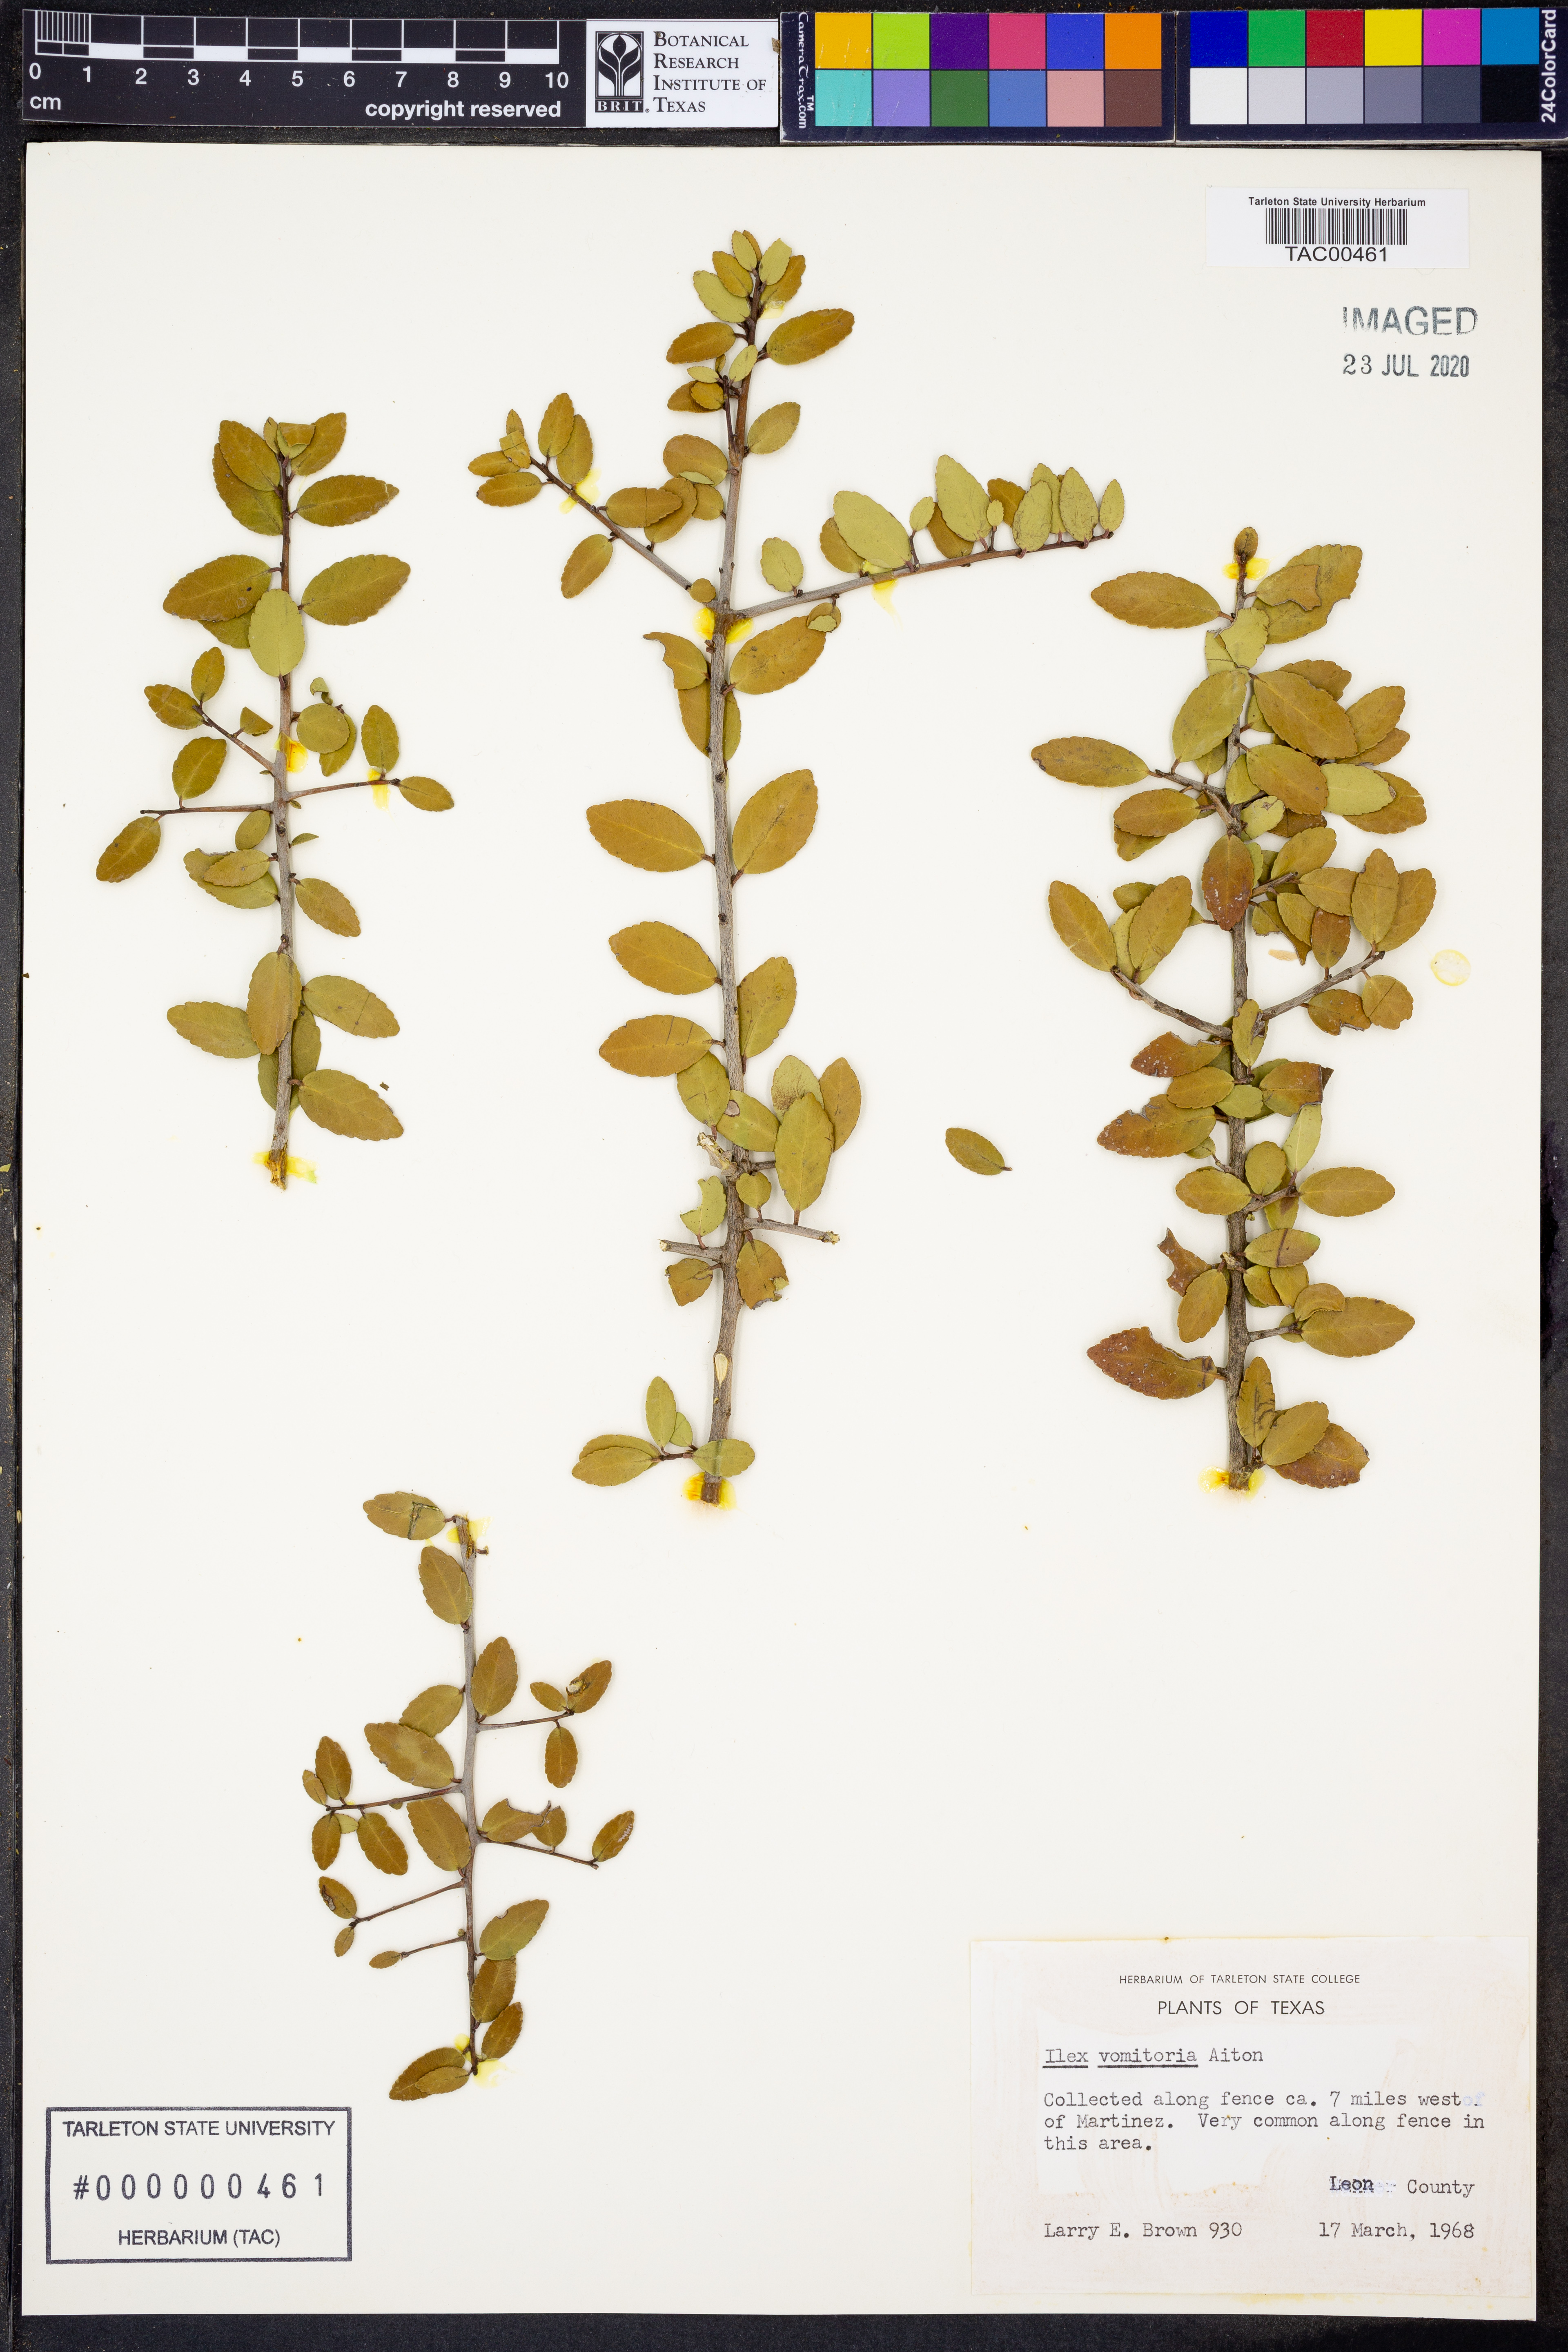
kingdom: Plantae
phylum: Tracheophyta
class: Magnoliopsida
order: Aquifoliales
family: Aquifoliaceae
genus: Ilex
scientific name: Ilex vomitoria
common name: Yaupon holly
